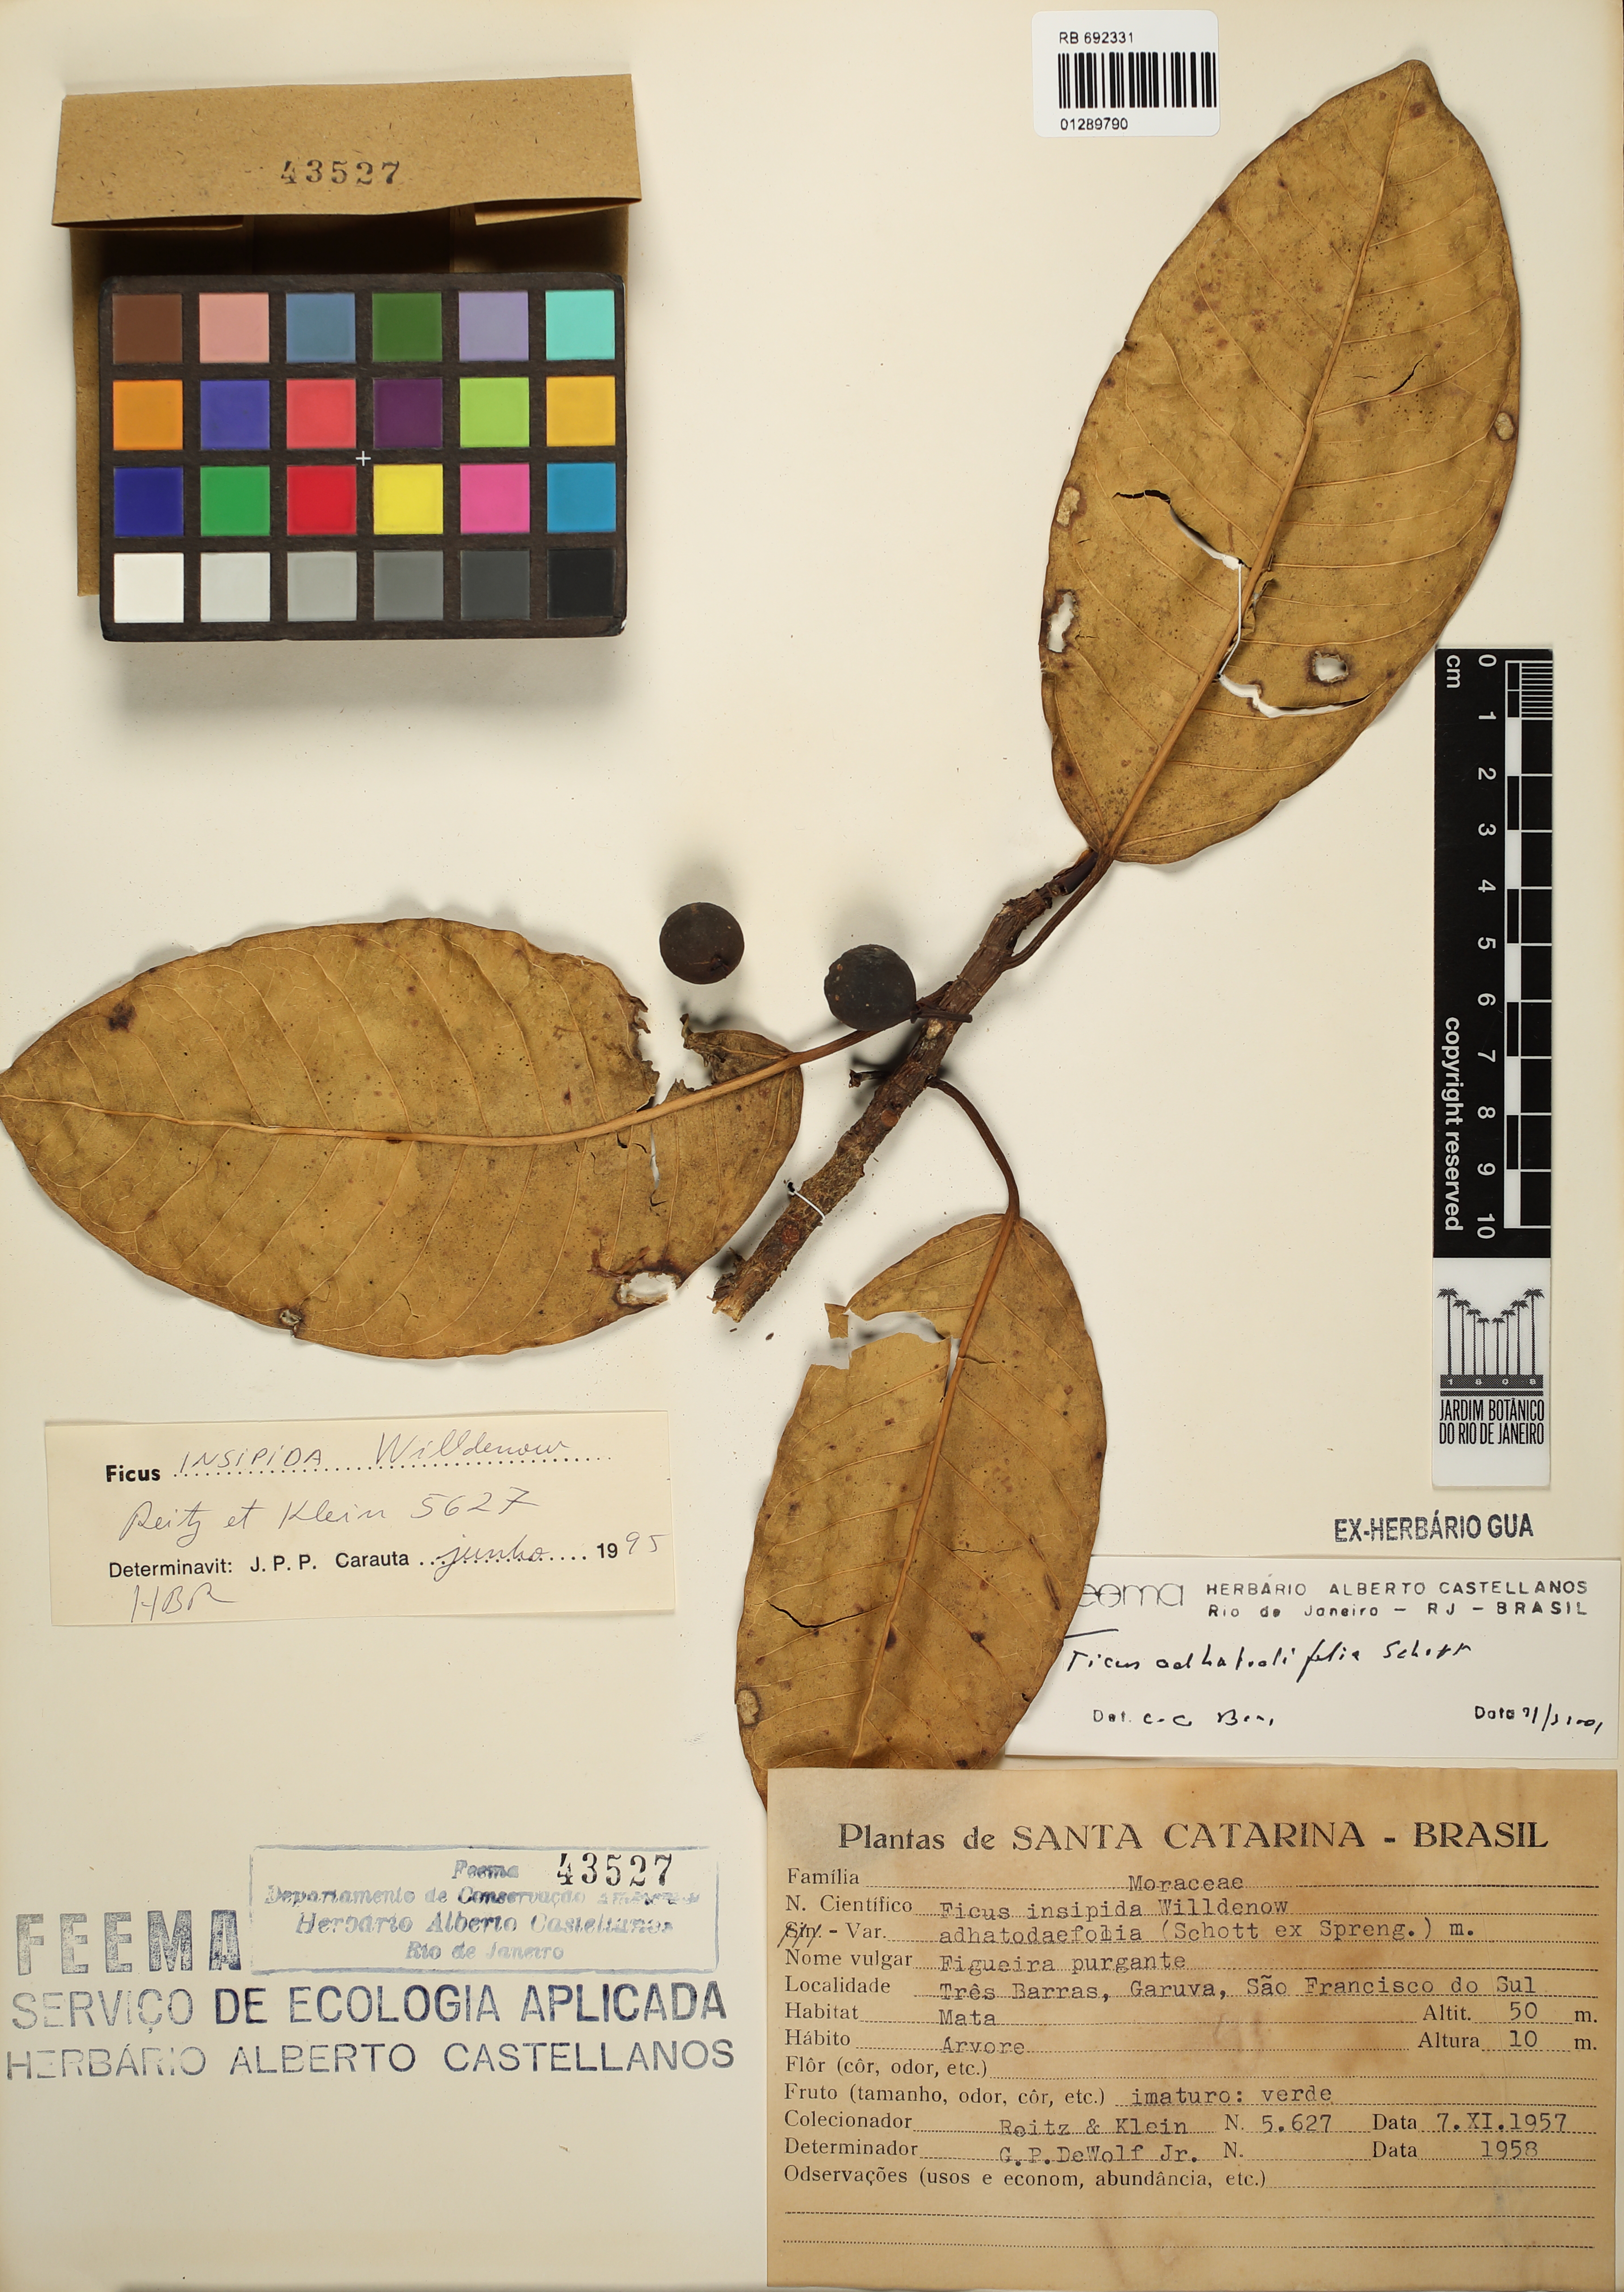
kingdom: Plantae
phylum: Tracheophyta
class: Magnoliopsida
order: Rosales
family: Moraceae
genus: Ficus
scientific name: Ficus adhatodifolia
